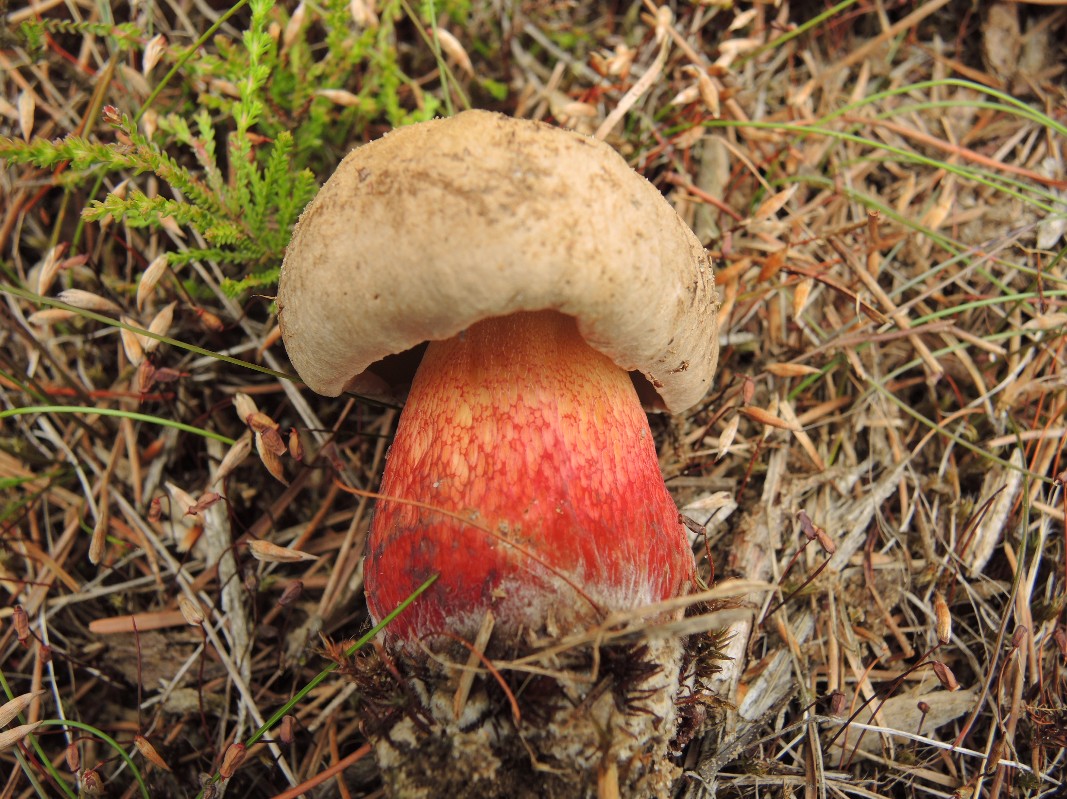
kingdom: Fungi
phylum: Basidiomycota
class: Agaricomycetes
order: Boletales
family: Boletaceae
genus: Caloboletus
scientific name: Caloboletus calopus
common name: skønfodet rørhat
